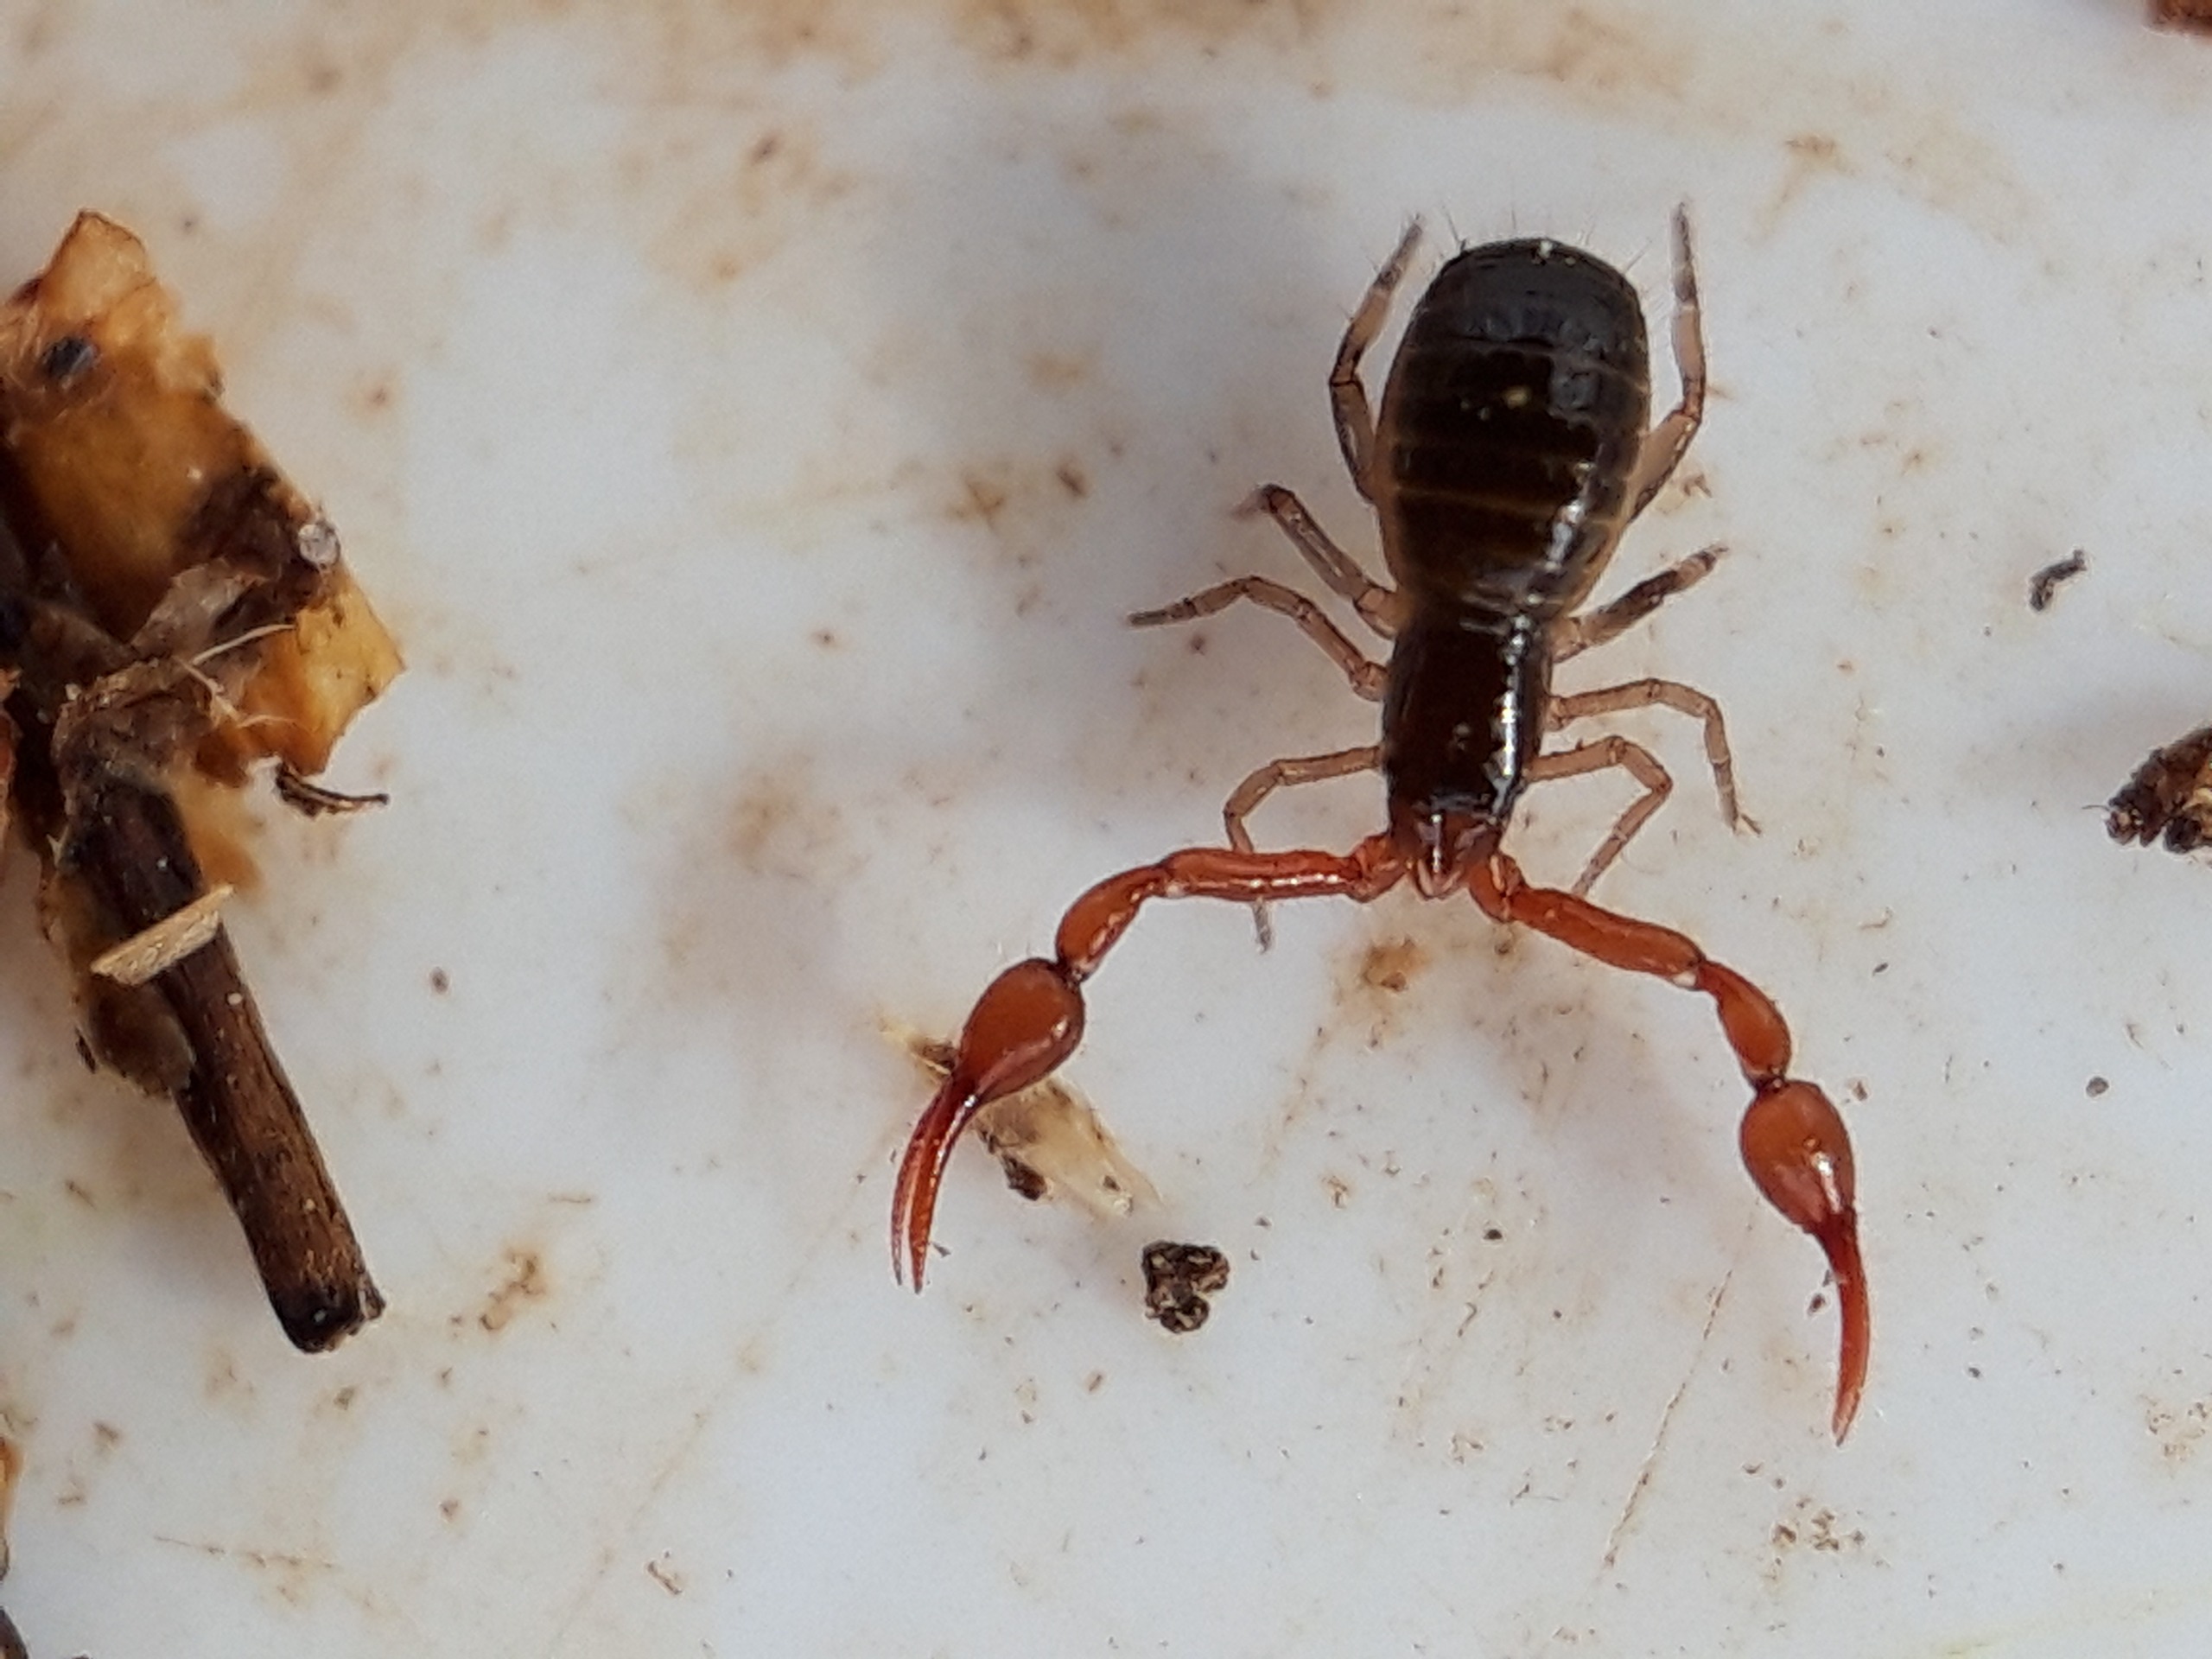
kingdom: Animalia
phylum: Arthropoda
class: Arachnida
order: Pseudoscorpiones
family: Neobisiidae
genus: Neobisium
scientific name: Neobisium carcinoides
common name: Almindelig mosskorpion
